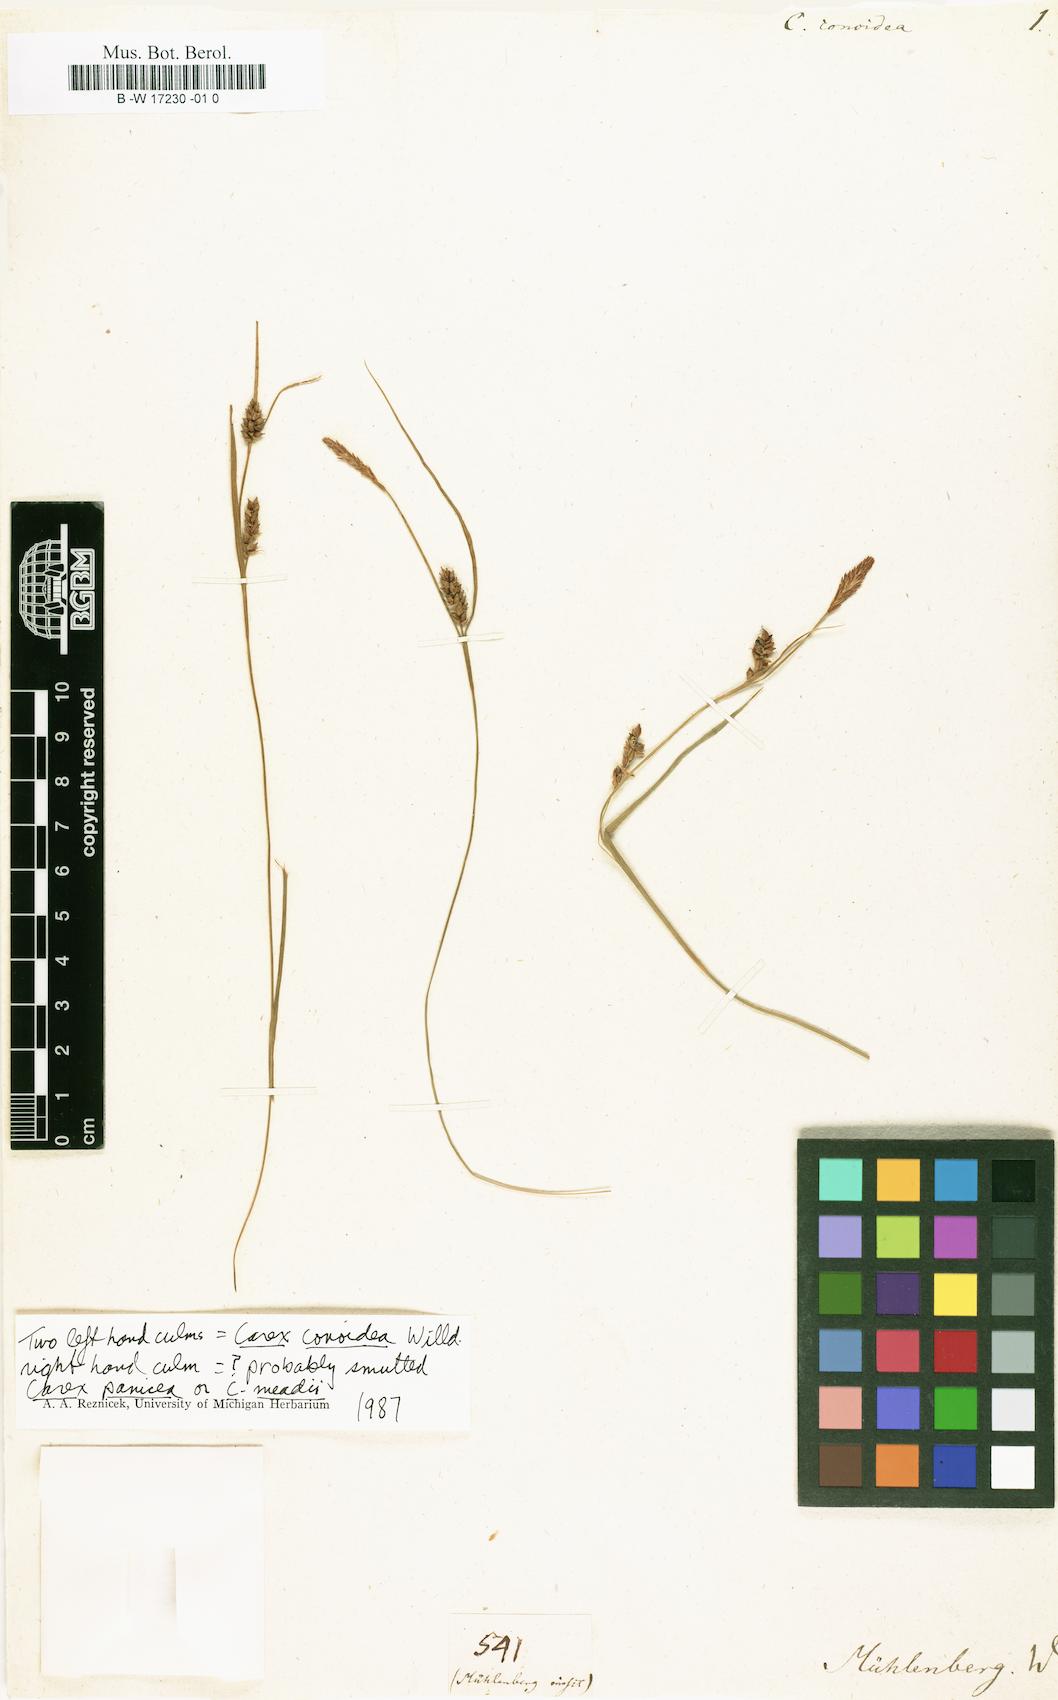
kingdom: Plantae
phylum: Tracheophyta
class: Liliopsida
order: Poales
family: Cyperaceae
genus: Carex
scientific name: Carex conoidea
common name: Cone shaped sedge
